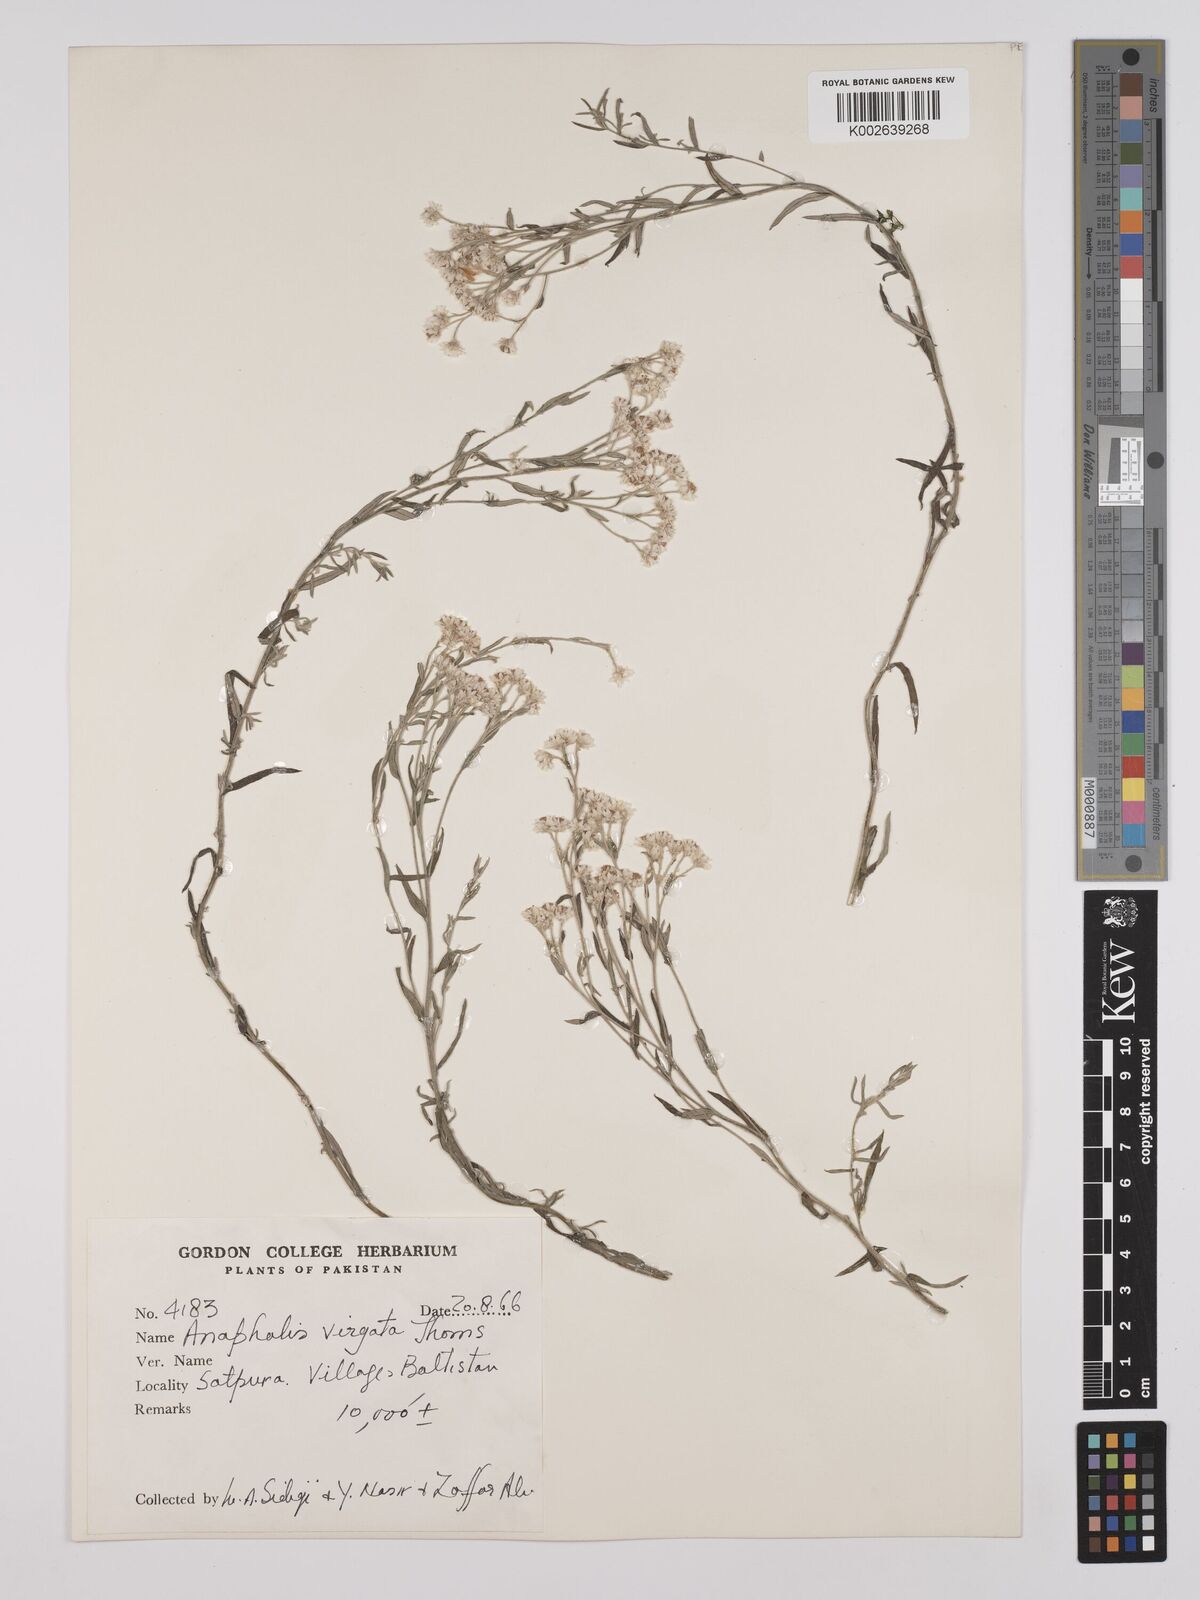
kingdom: Plantae
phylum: Tracheophyta
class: Magnoliopsida
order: Asterales
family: Asteraceae
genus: Anaphalis
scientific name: Anaphalis virgata
